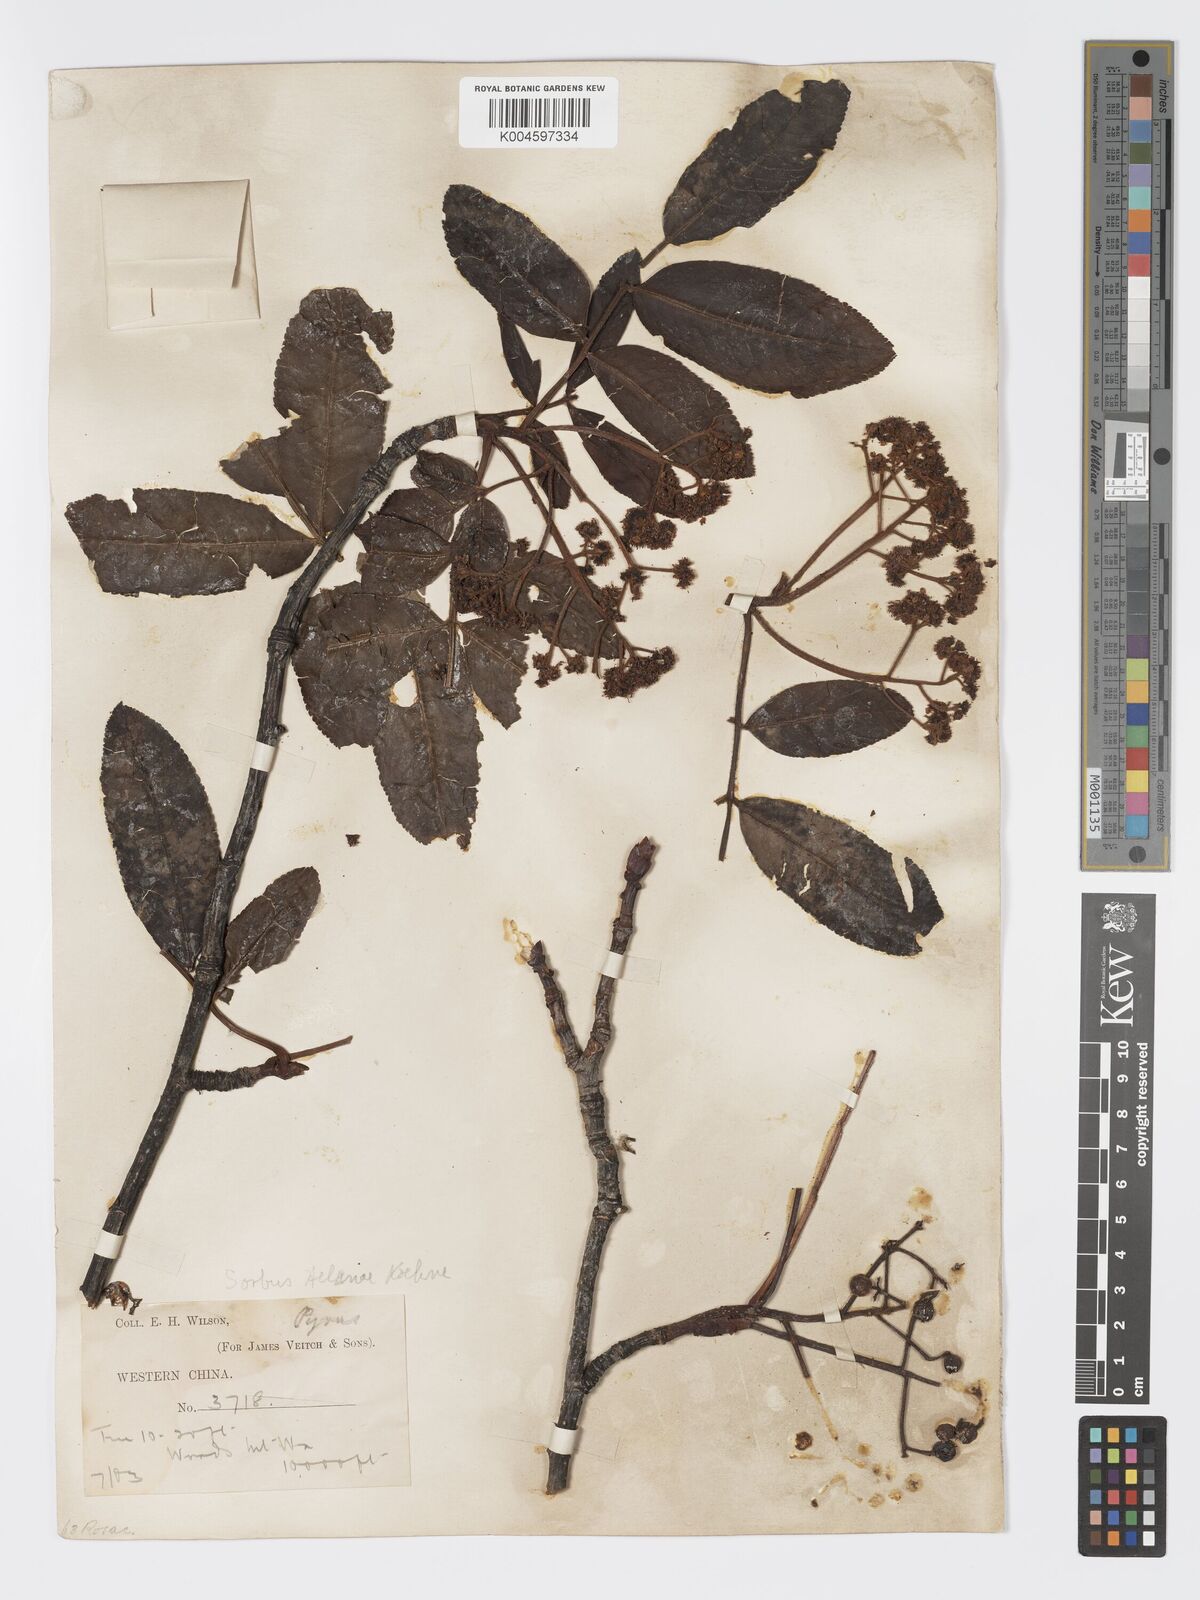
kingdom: Plantae
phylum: Tracheophyta
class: Magnoliopsida
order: Rosales
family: Rosaceae
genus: Sorbus
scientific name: Sorbus
